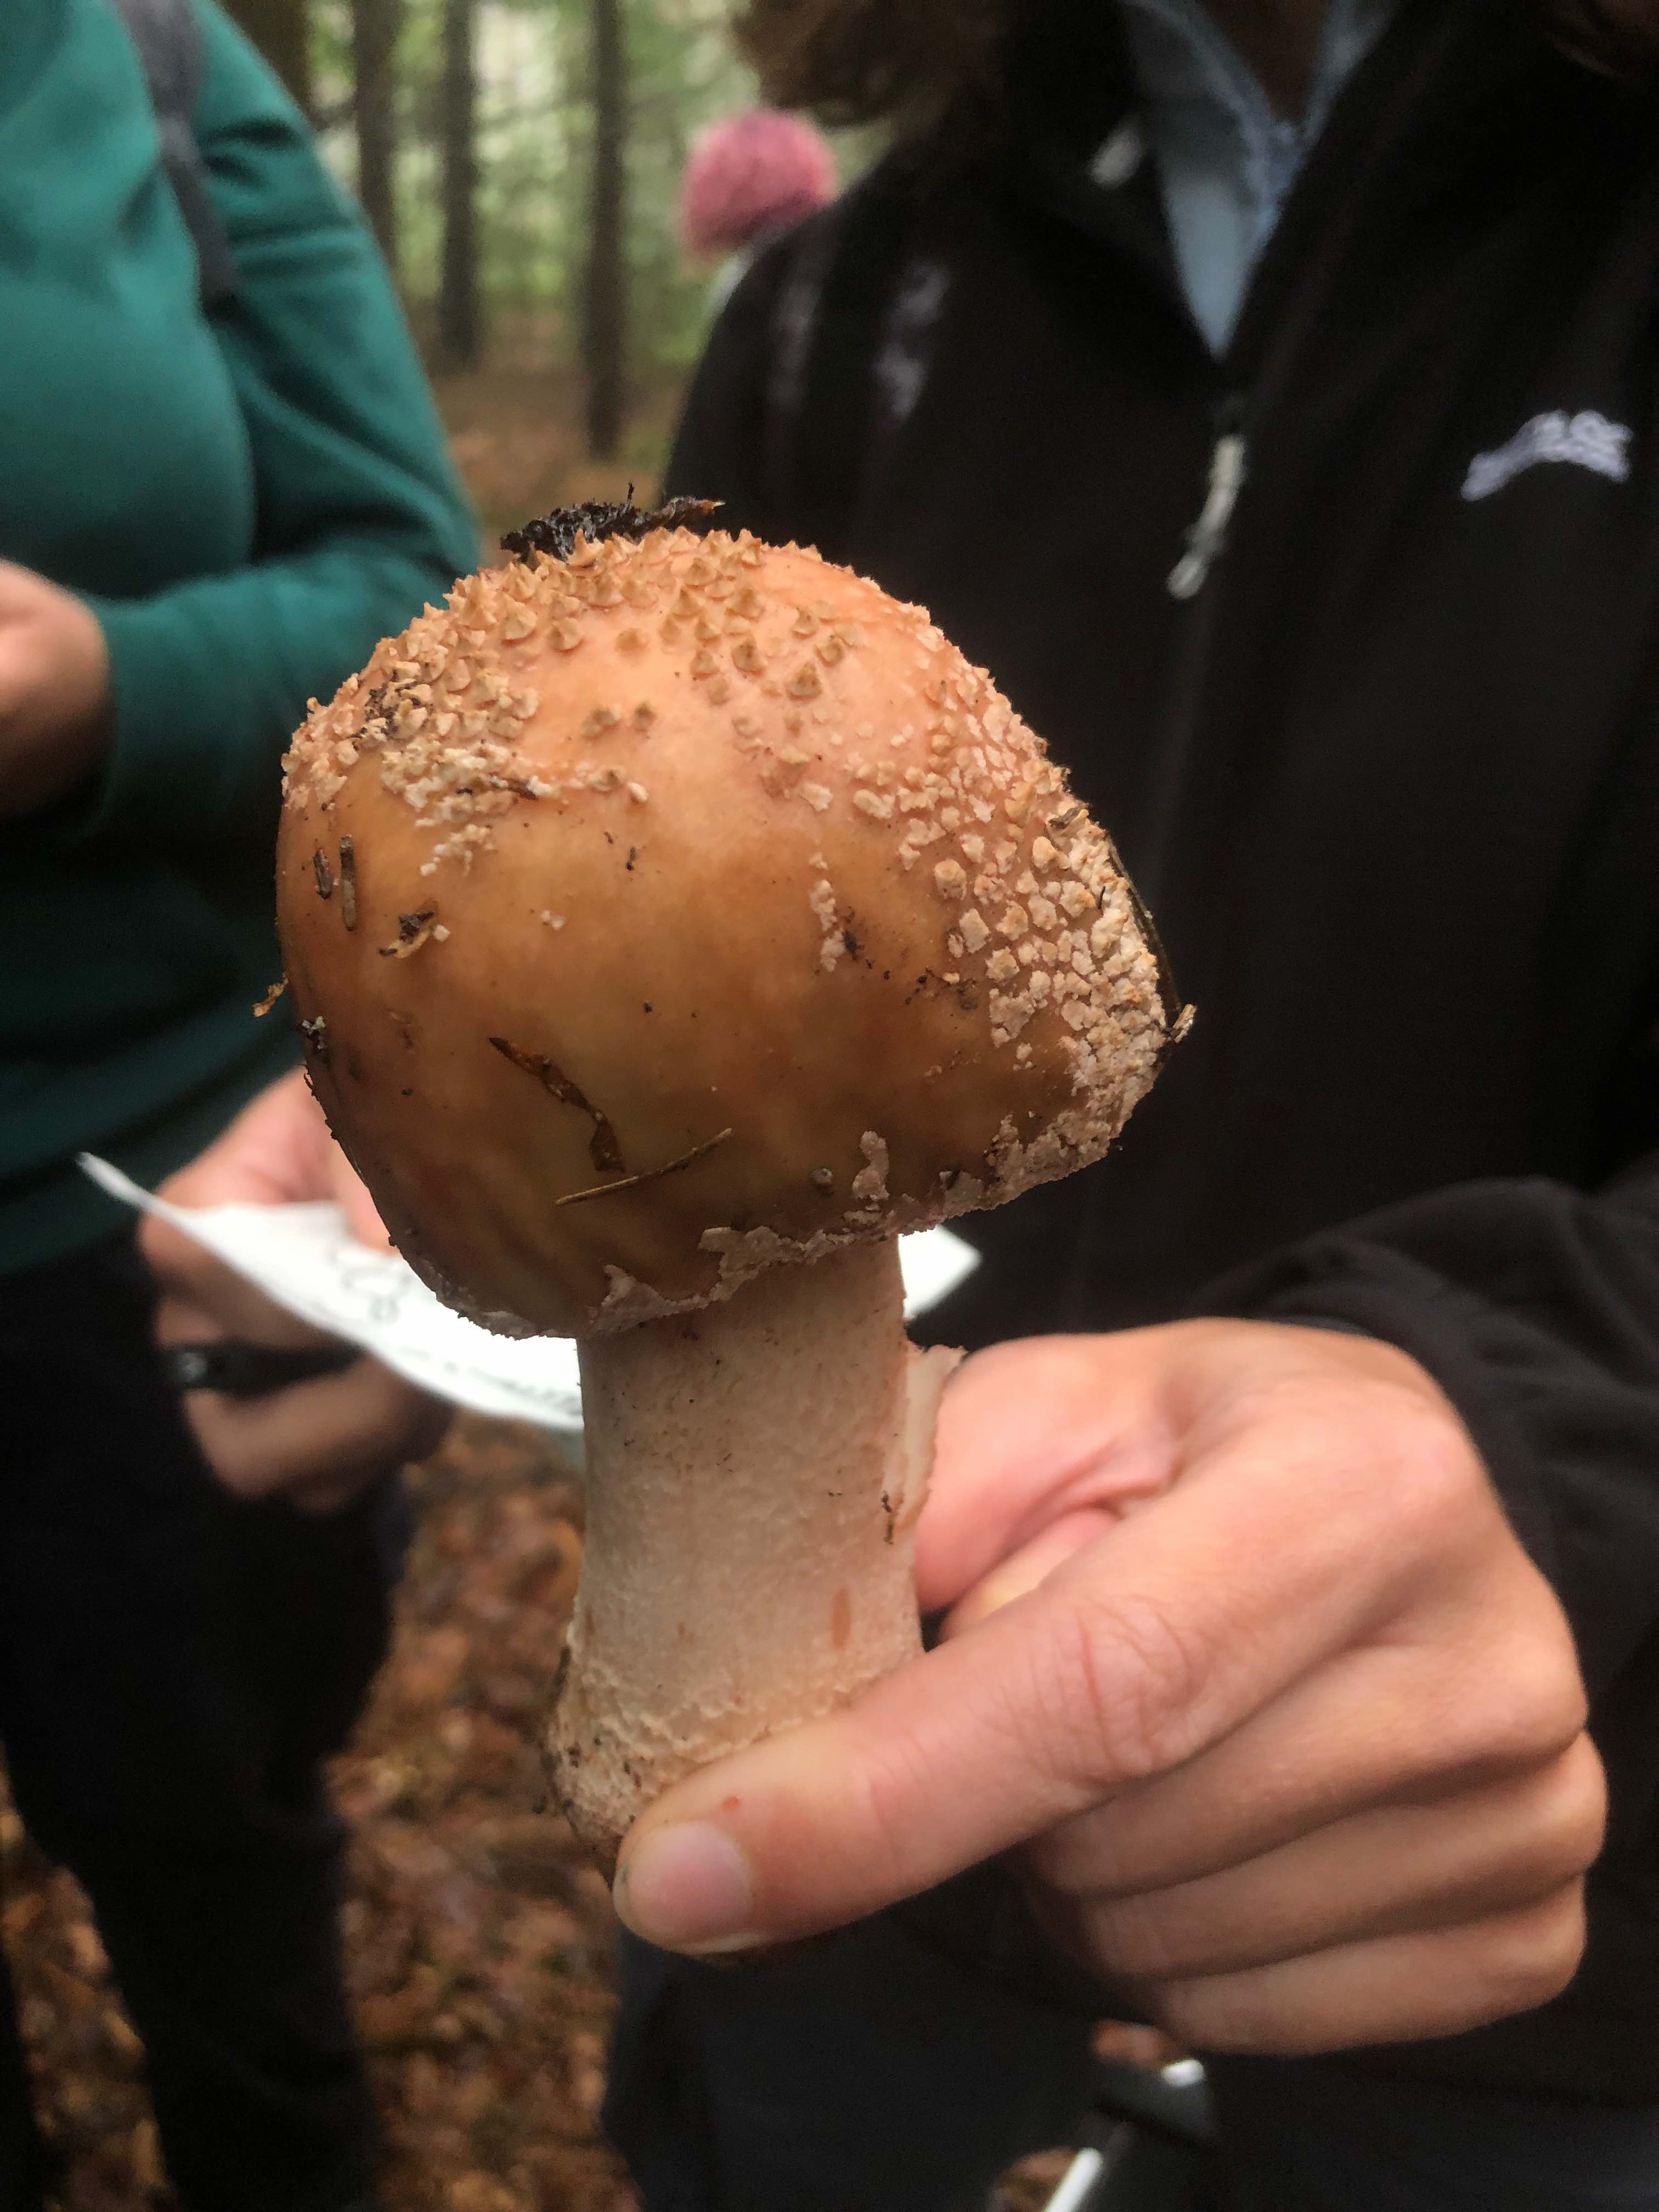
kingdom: Fungi
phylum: Basidiomycota
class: Agaricomycetes
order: Agaricales
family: Amanitaceae
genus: Amanita
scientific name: Amanita rubescens
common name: rødmende fluesvamp
